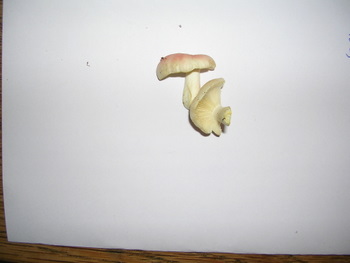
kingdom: Fungi
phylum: Basidiomycota
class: Agaricomycetes
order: Russulales
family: Russulaceae
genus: Russula
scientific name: Russula luteotacta
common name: gulplettet gift-skørhat
